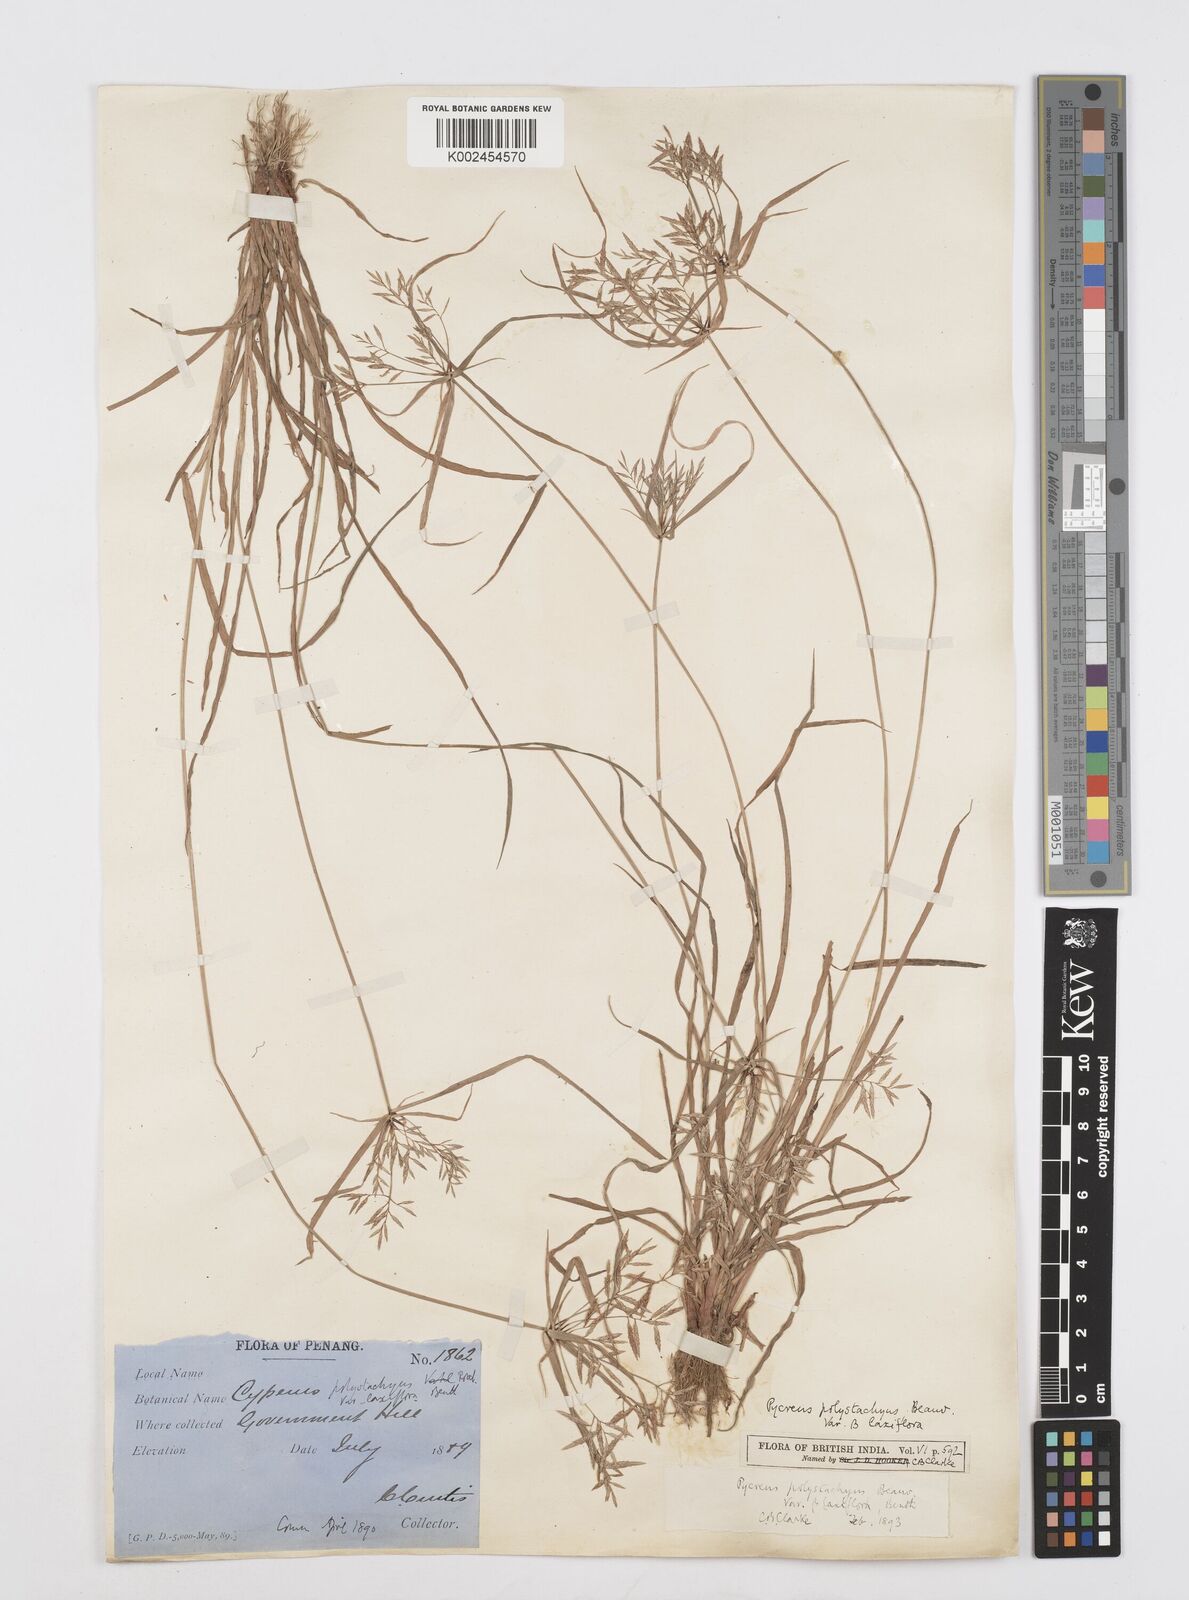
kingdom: Plantae
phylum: Tracheophyta
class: Liliopsida
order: Poales
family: Cyperaceae
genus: Cyperus
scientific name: Cyperus polystachyos
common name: Bunchy flat sedge
